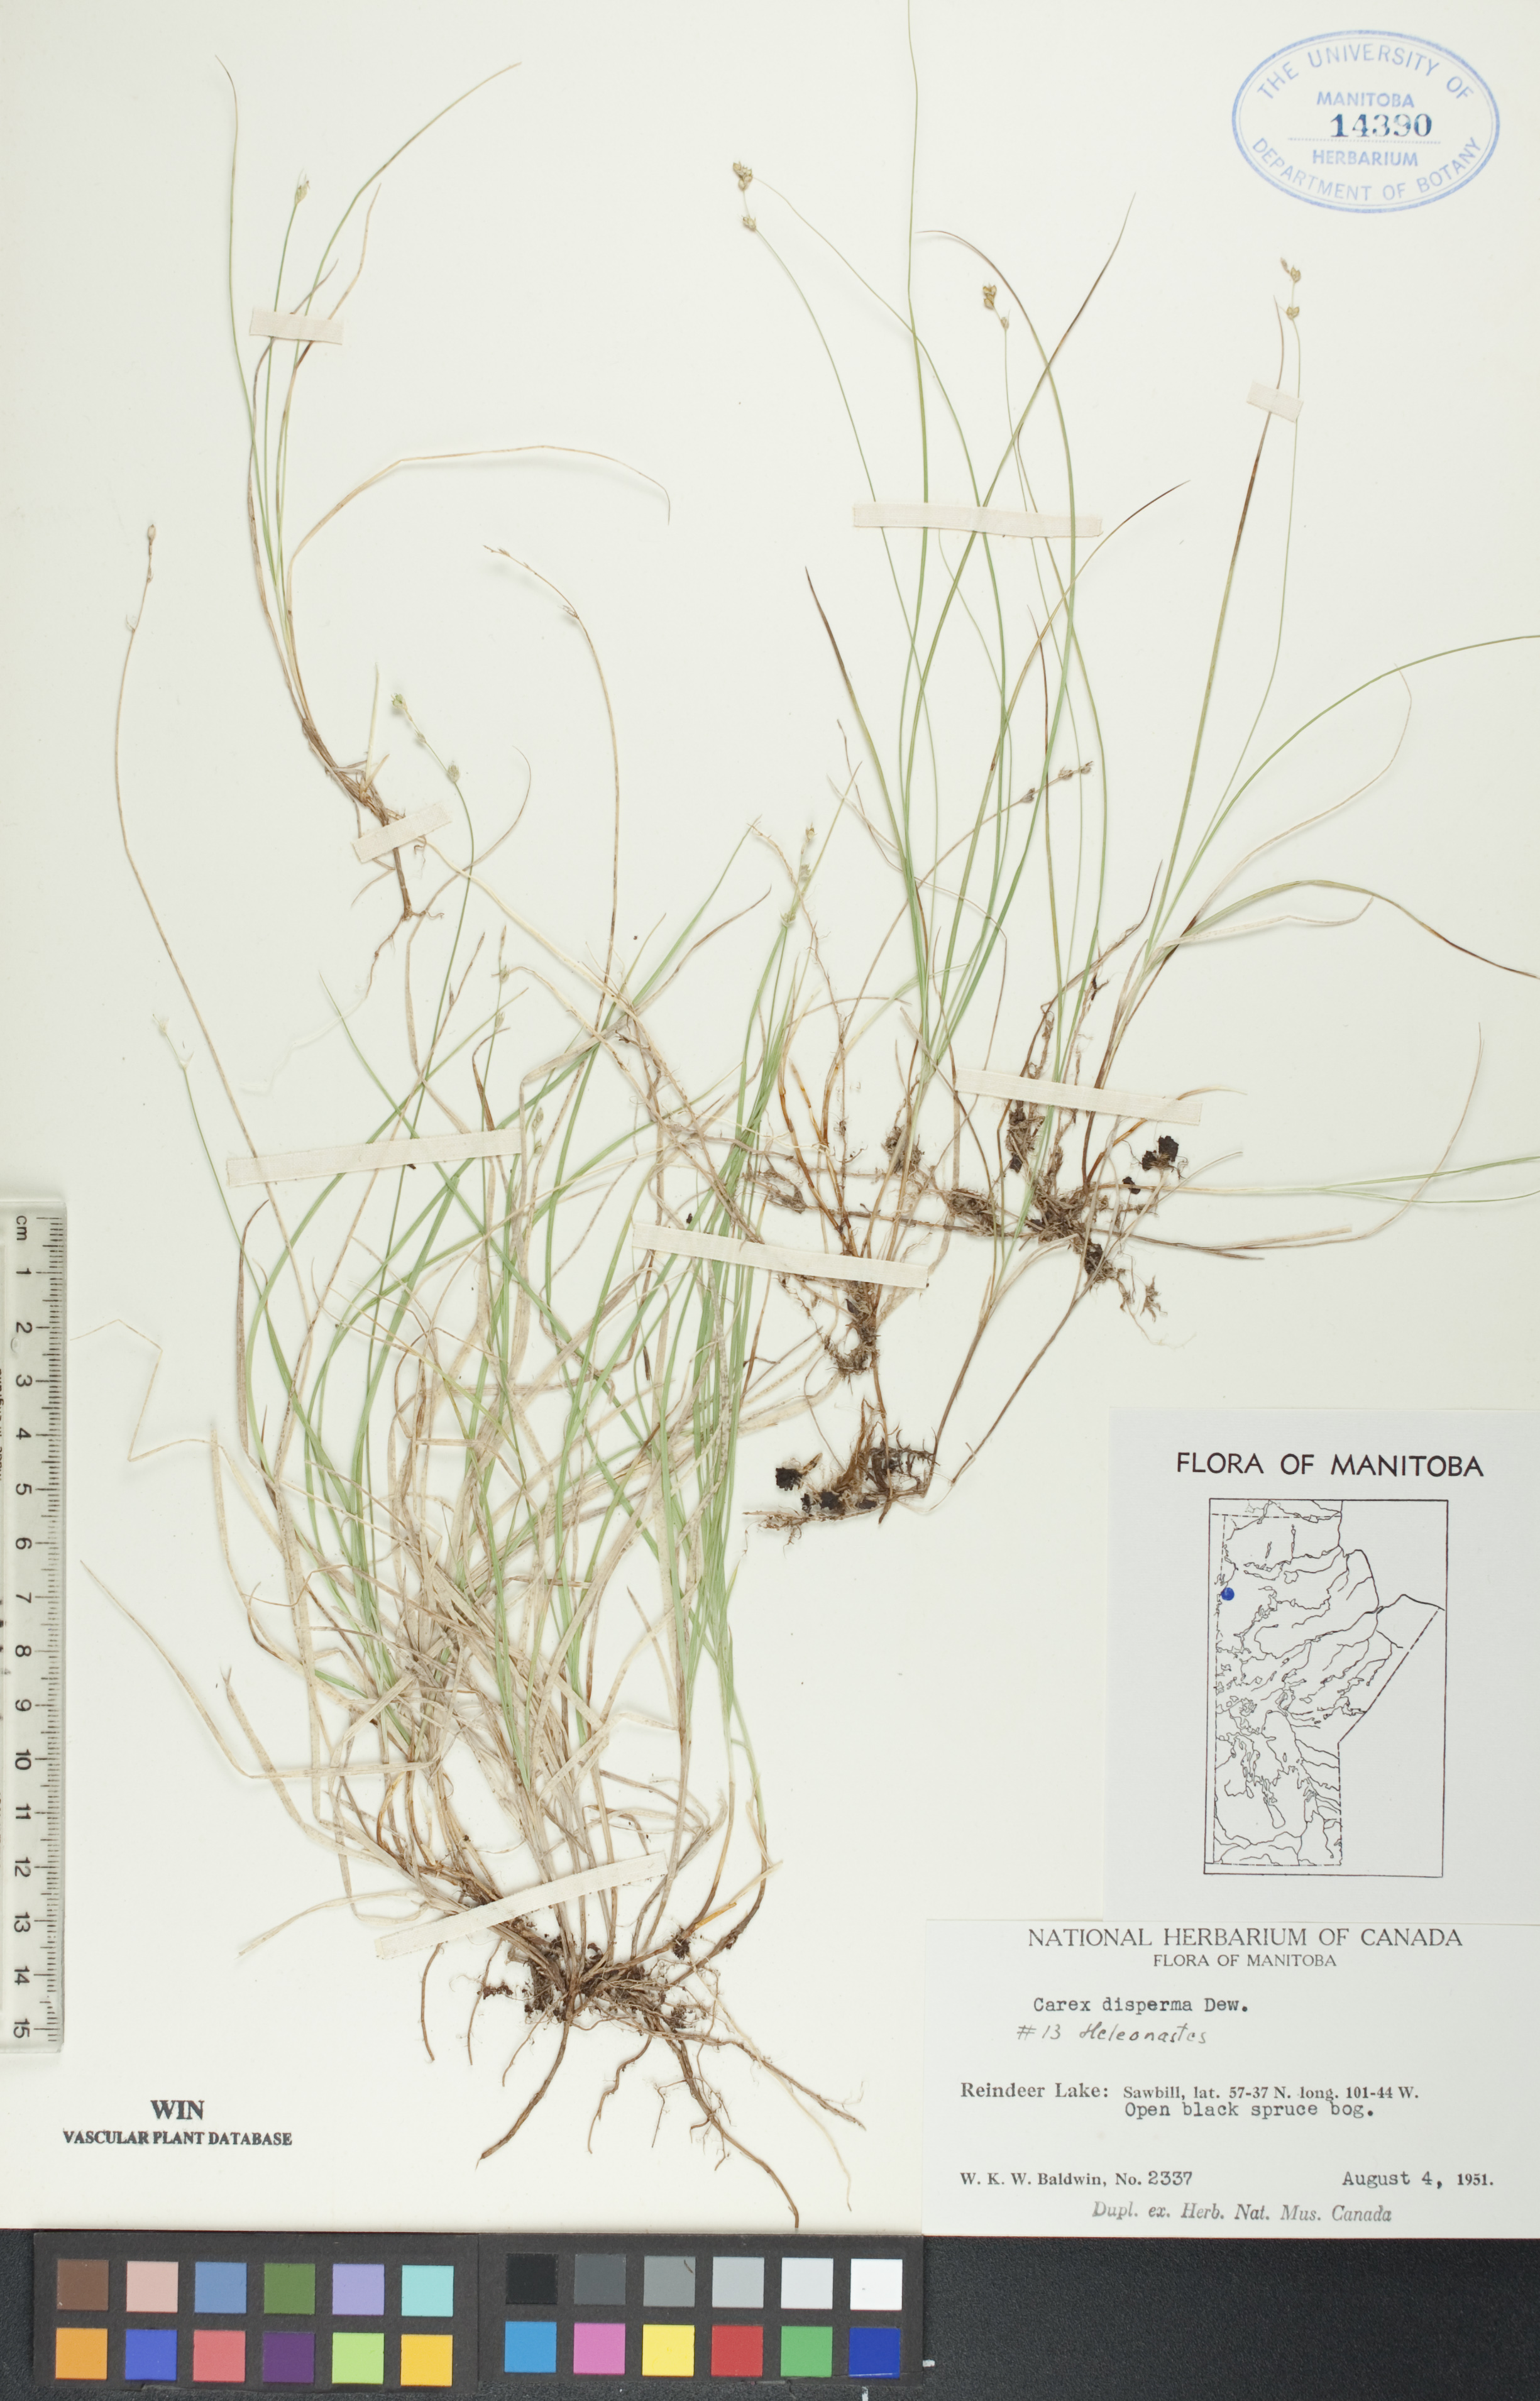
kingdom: Plantae
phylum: Tracheophyta
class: Liliopsida
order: Poales
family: Cyperaceae
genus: Carex
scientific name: Carex disperma
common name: Short-leaved sedge
